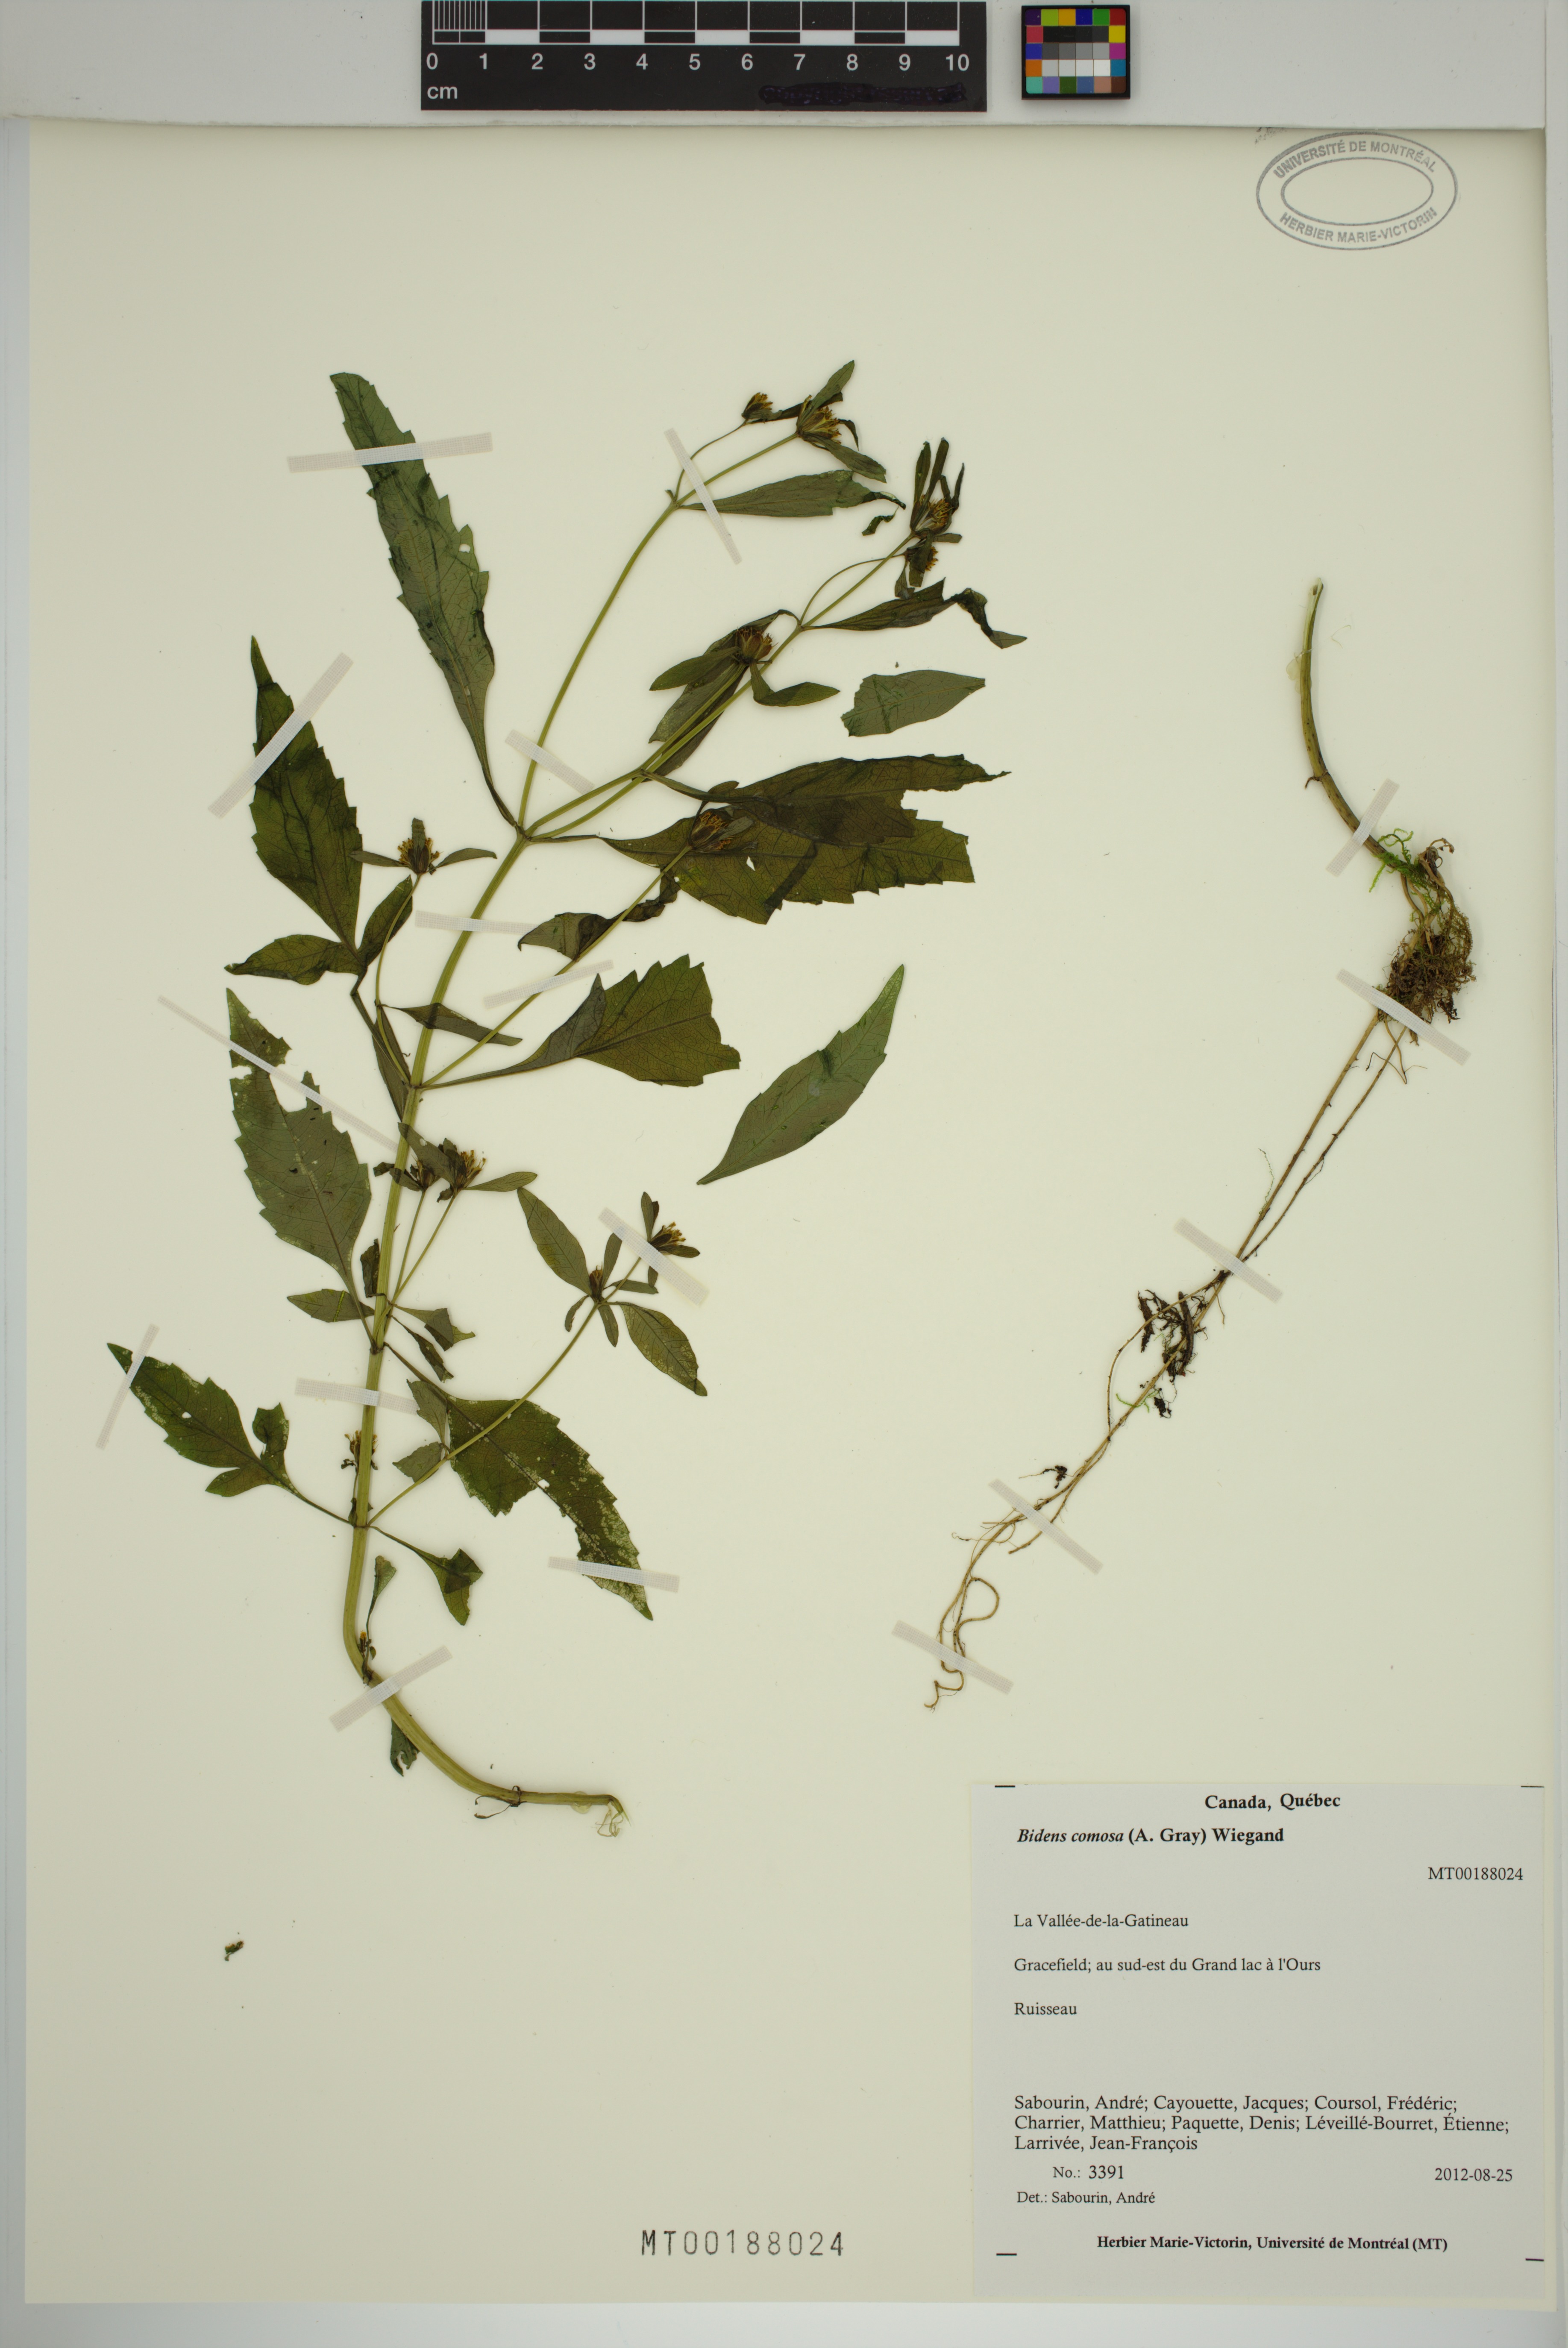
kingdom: Plantae
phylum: Tracheophyta
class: Magnoliopsida
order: Asterales
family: Asteraceae
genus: Bidens
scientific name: Bidens tripartita
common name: Trifid bur-marigold
